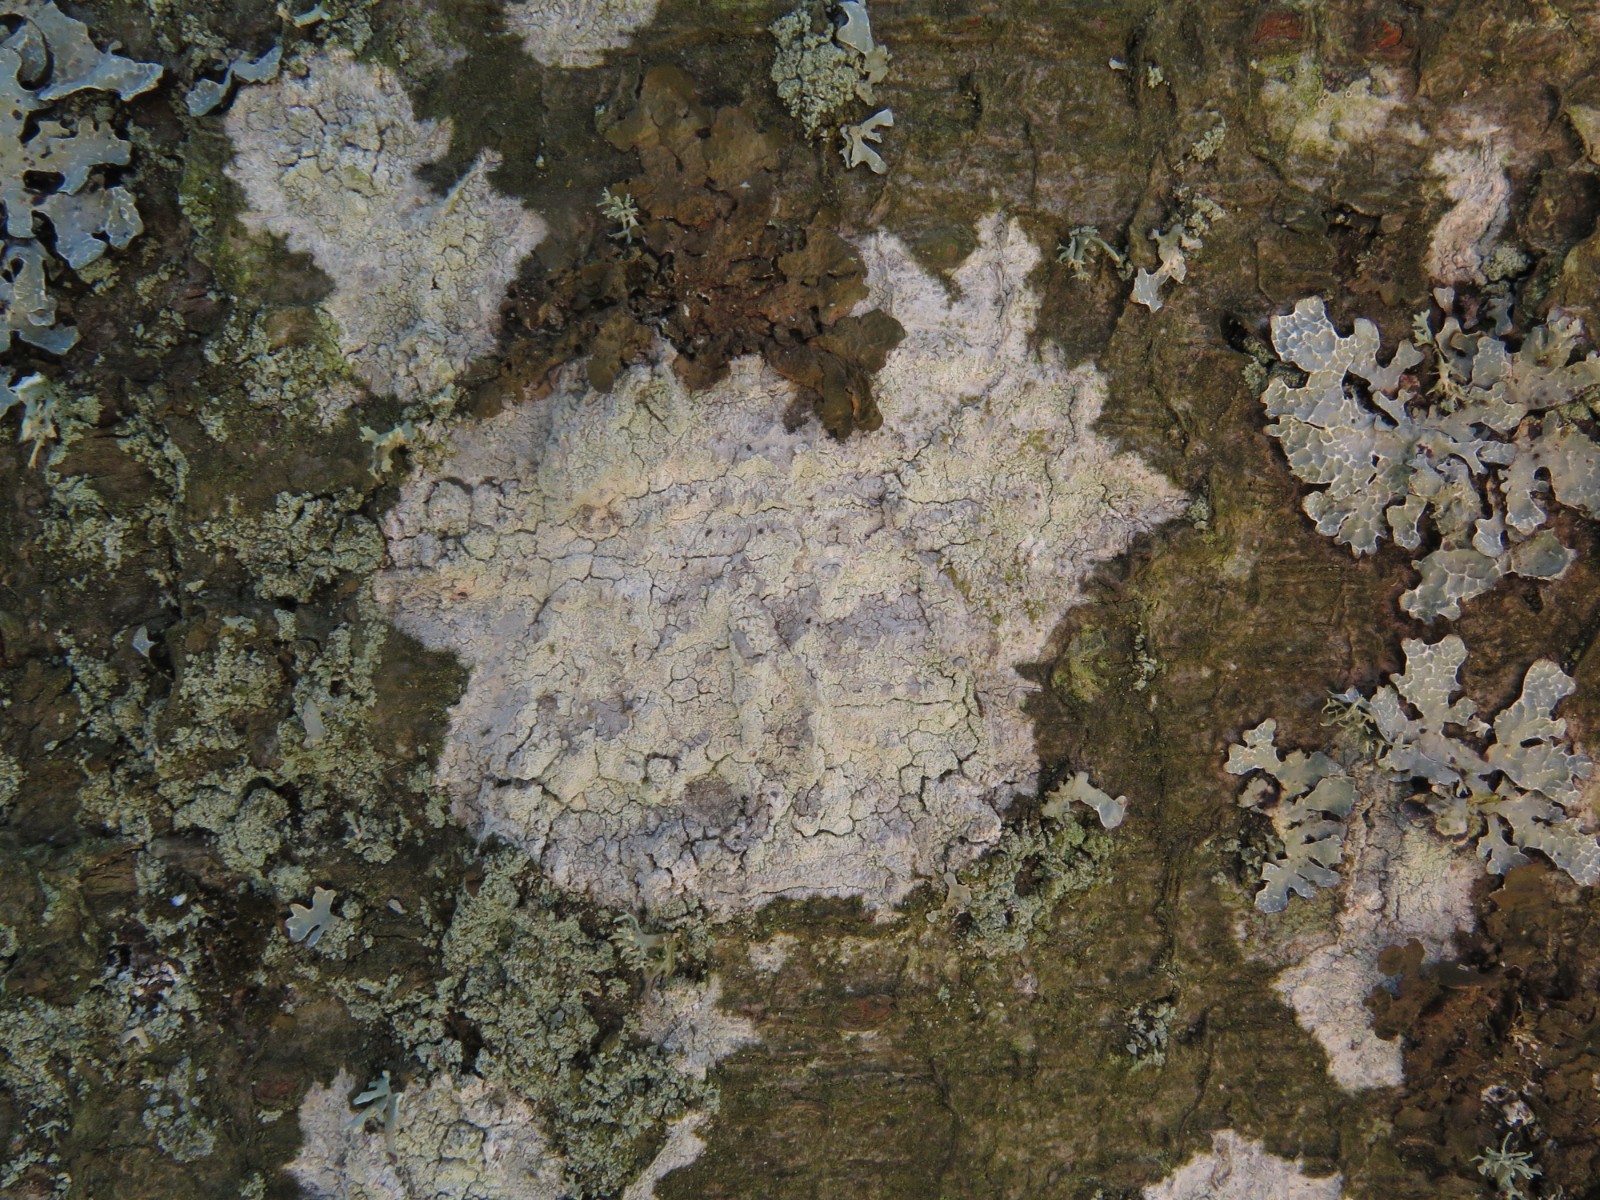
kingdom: Fungi
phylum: Ascomycota
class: Lecanoromycetes
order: Ostropales
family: Phlyctidaceae
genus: Phlyctis
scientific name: Phlyctis argena
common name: almindelig sølvlav
